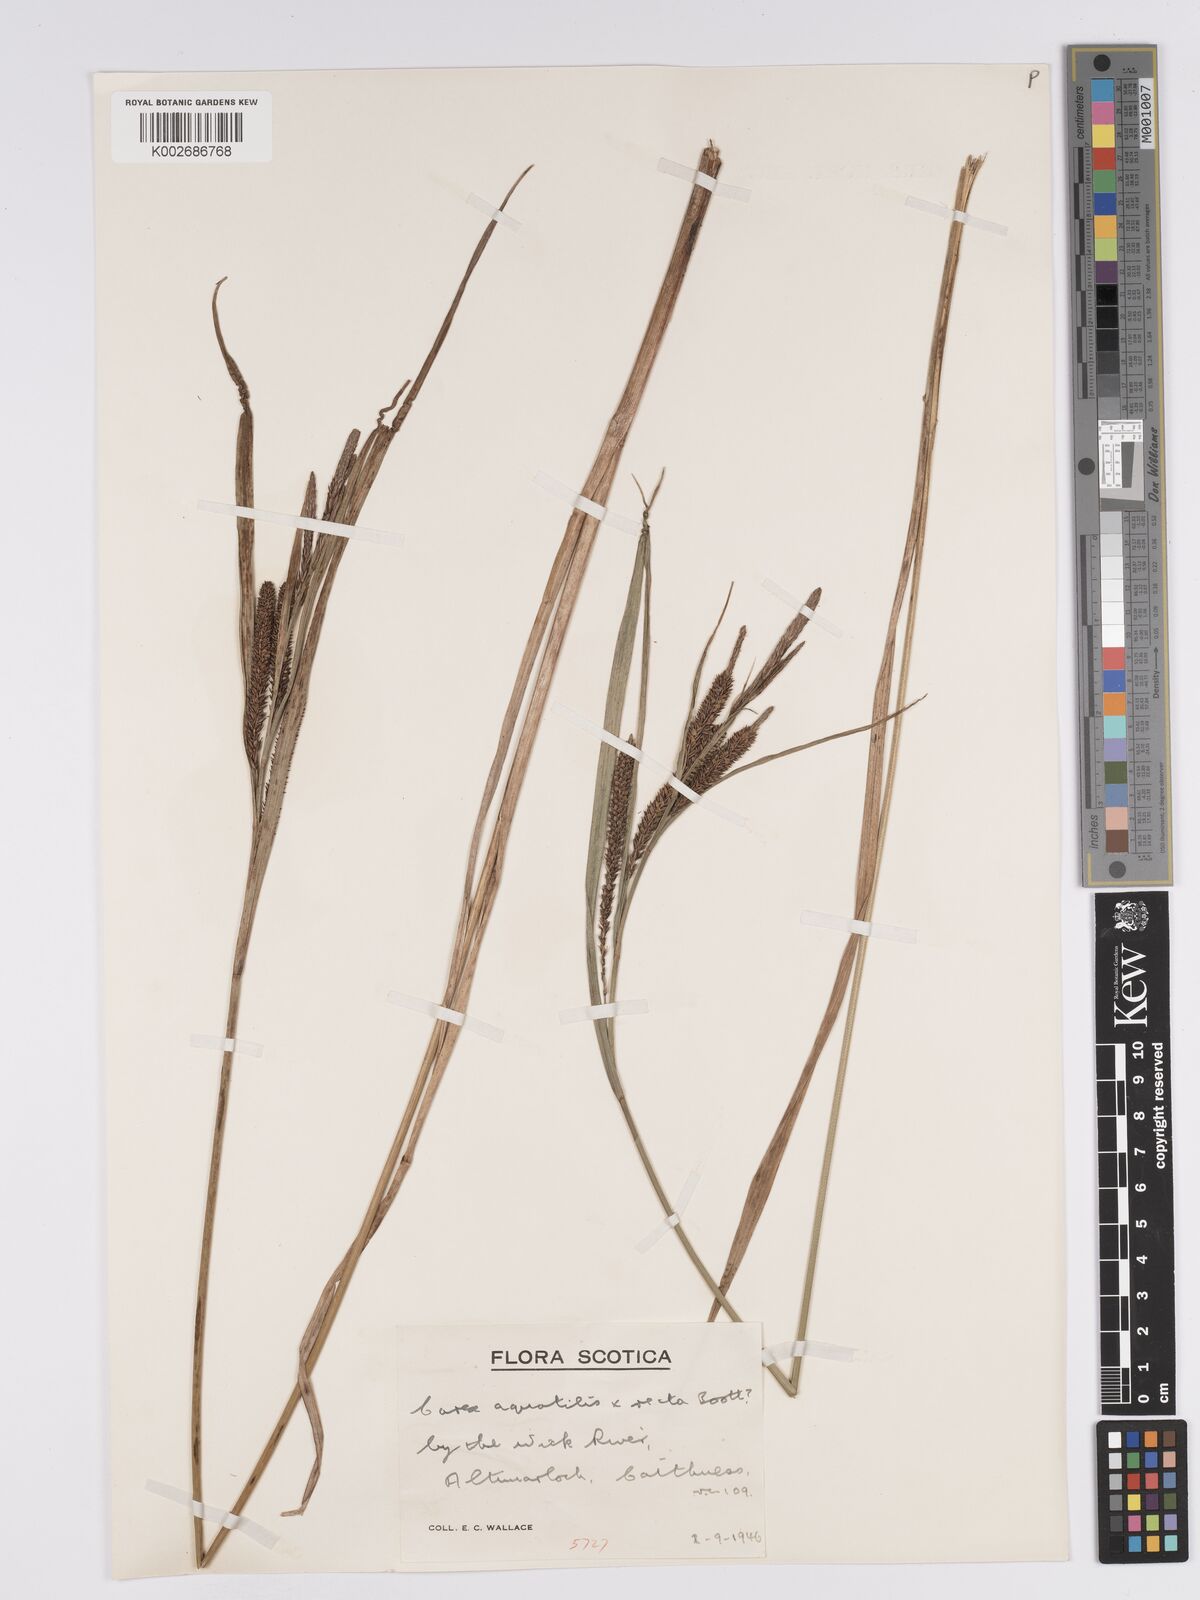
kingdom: Plantae
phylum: Tracheophyta
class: Liliopsida
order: Poales
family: Cyperaceae
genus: Carex
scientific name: Carex grantii
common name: Grant's sedge
